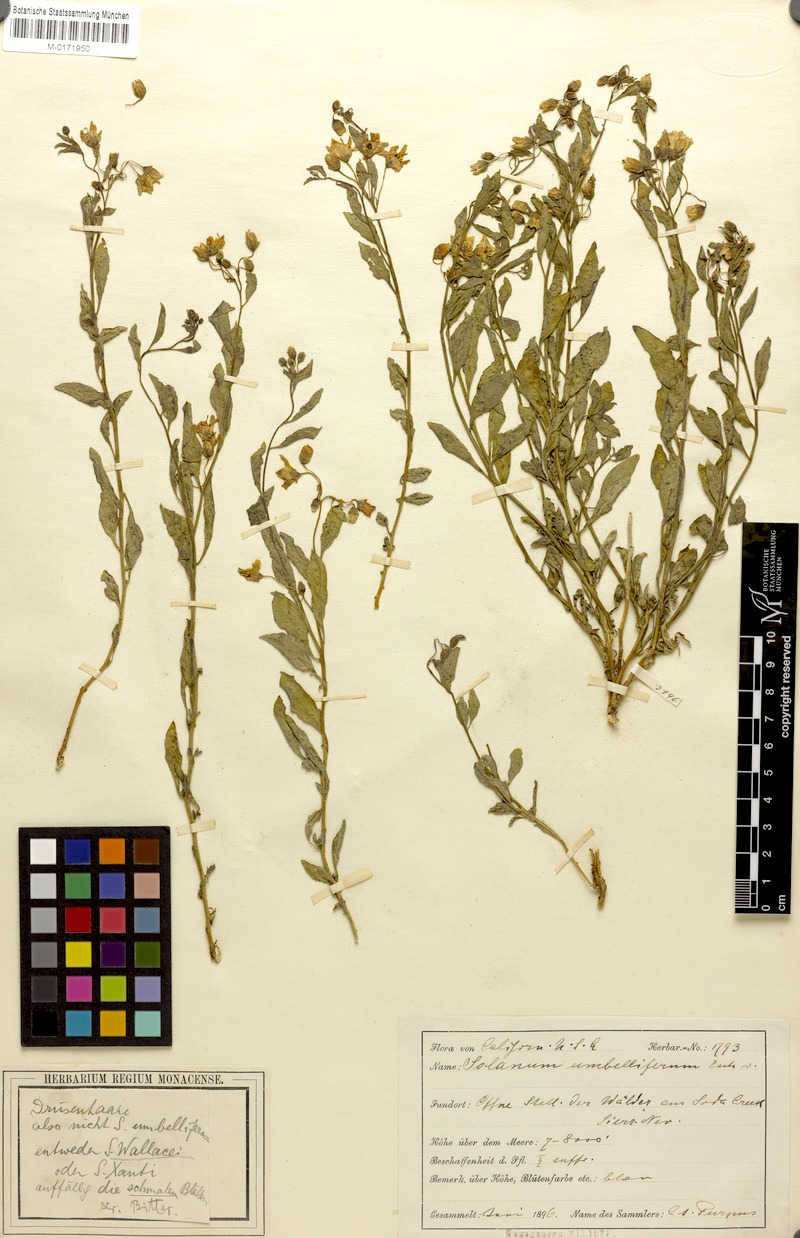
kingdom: Plantae
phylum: Tracheophyta
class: Magnoliopsida
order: Solanales
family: Solanaceae
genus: Solanum
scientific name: Solanum umbelliferum
